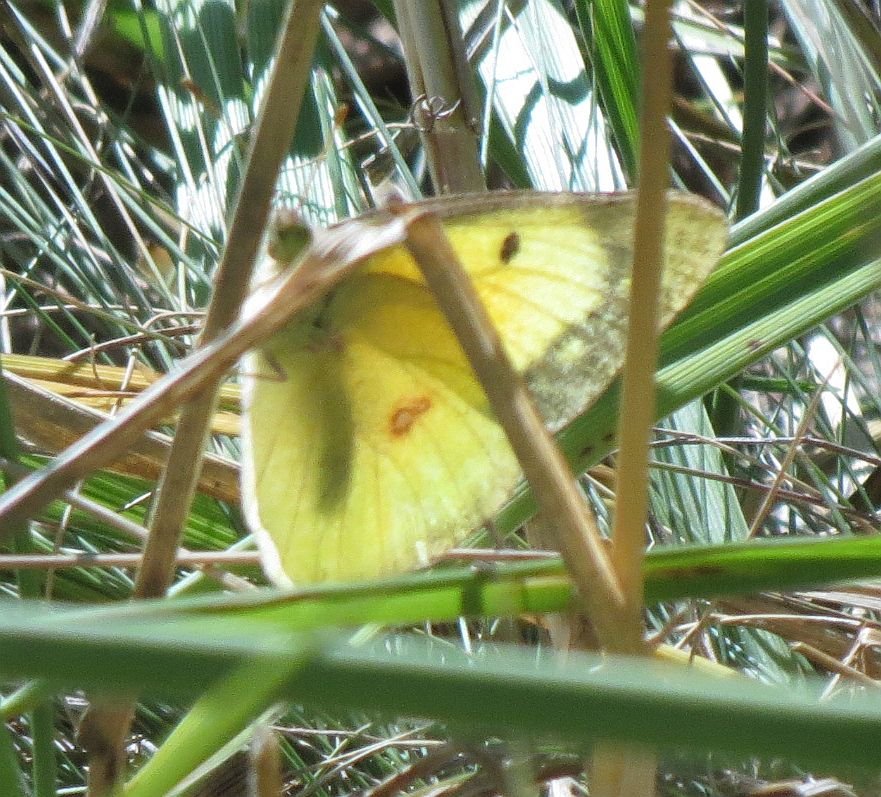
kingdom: Animalia
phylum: Arthropoda
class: Insecta
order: Lepidoptera
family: Pieridae
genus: Colias
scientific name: Colias philodice
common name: Clouded Sulphur
